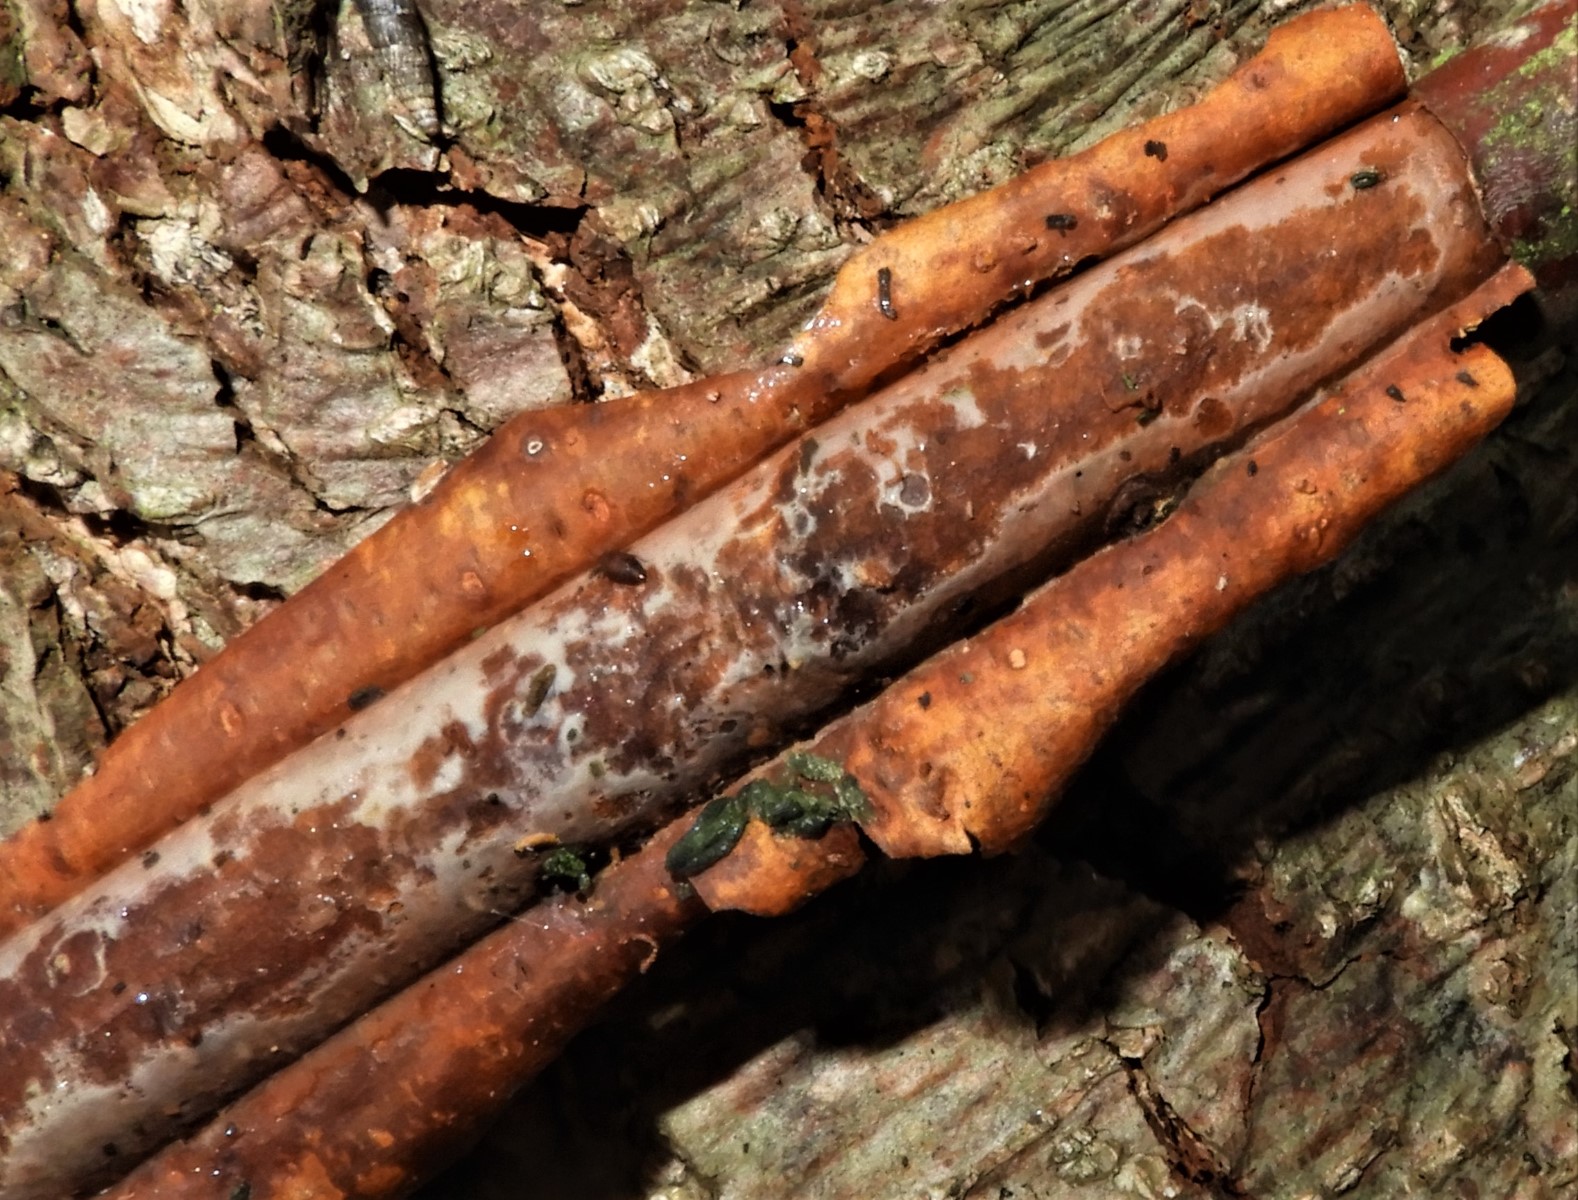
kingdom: Fungi
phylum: Basidiomycota
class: Agaricomycetes
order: Corticiales
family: Vuilleminiaceae
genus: Vuilleminia
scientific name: Vuilleminia coryli
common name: hassel-barksprænger
